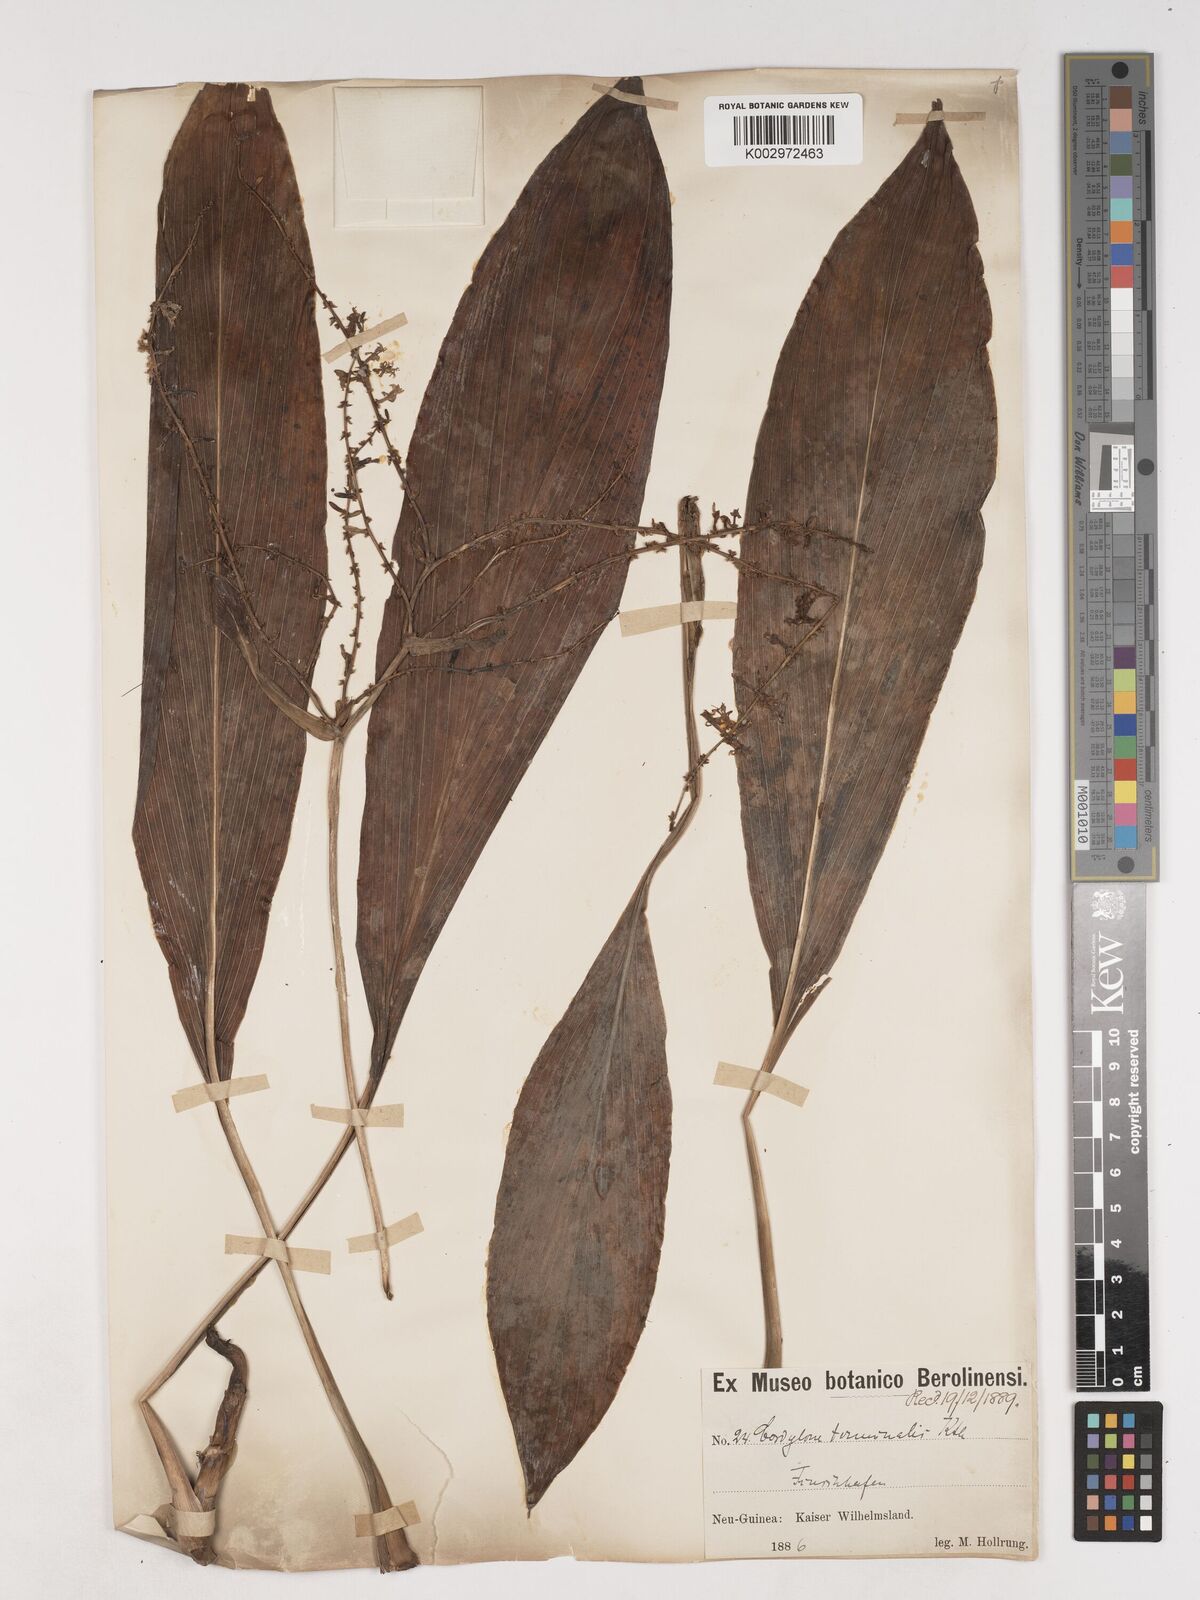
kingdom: Plantae
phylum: Tracheophyta
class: Liliopsida
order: Asparagales
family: Asparagaceae
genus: Cordyline
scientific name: Cordyline fruticosa
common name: Good-luck-plant
